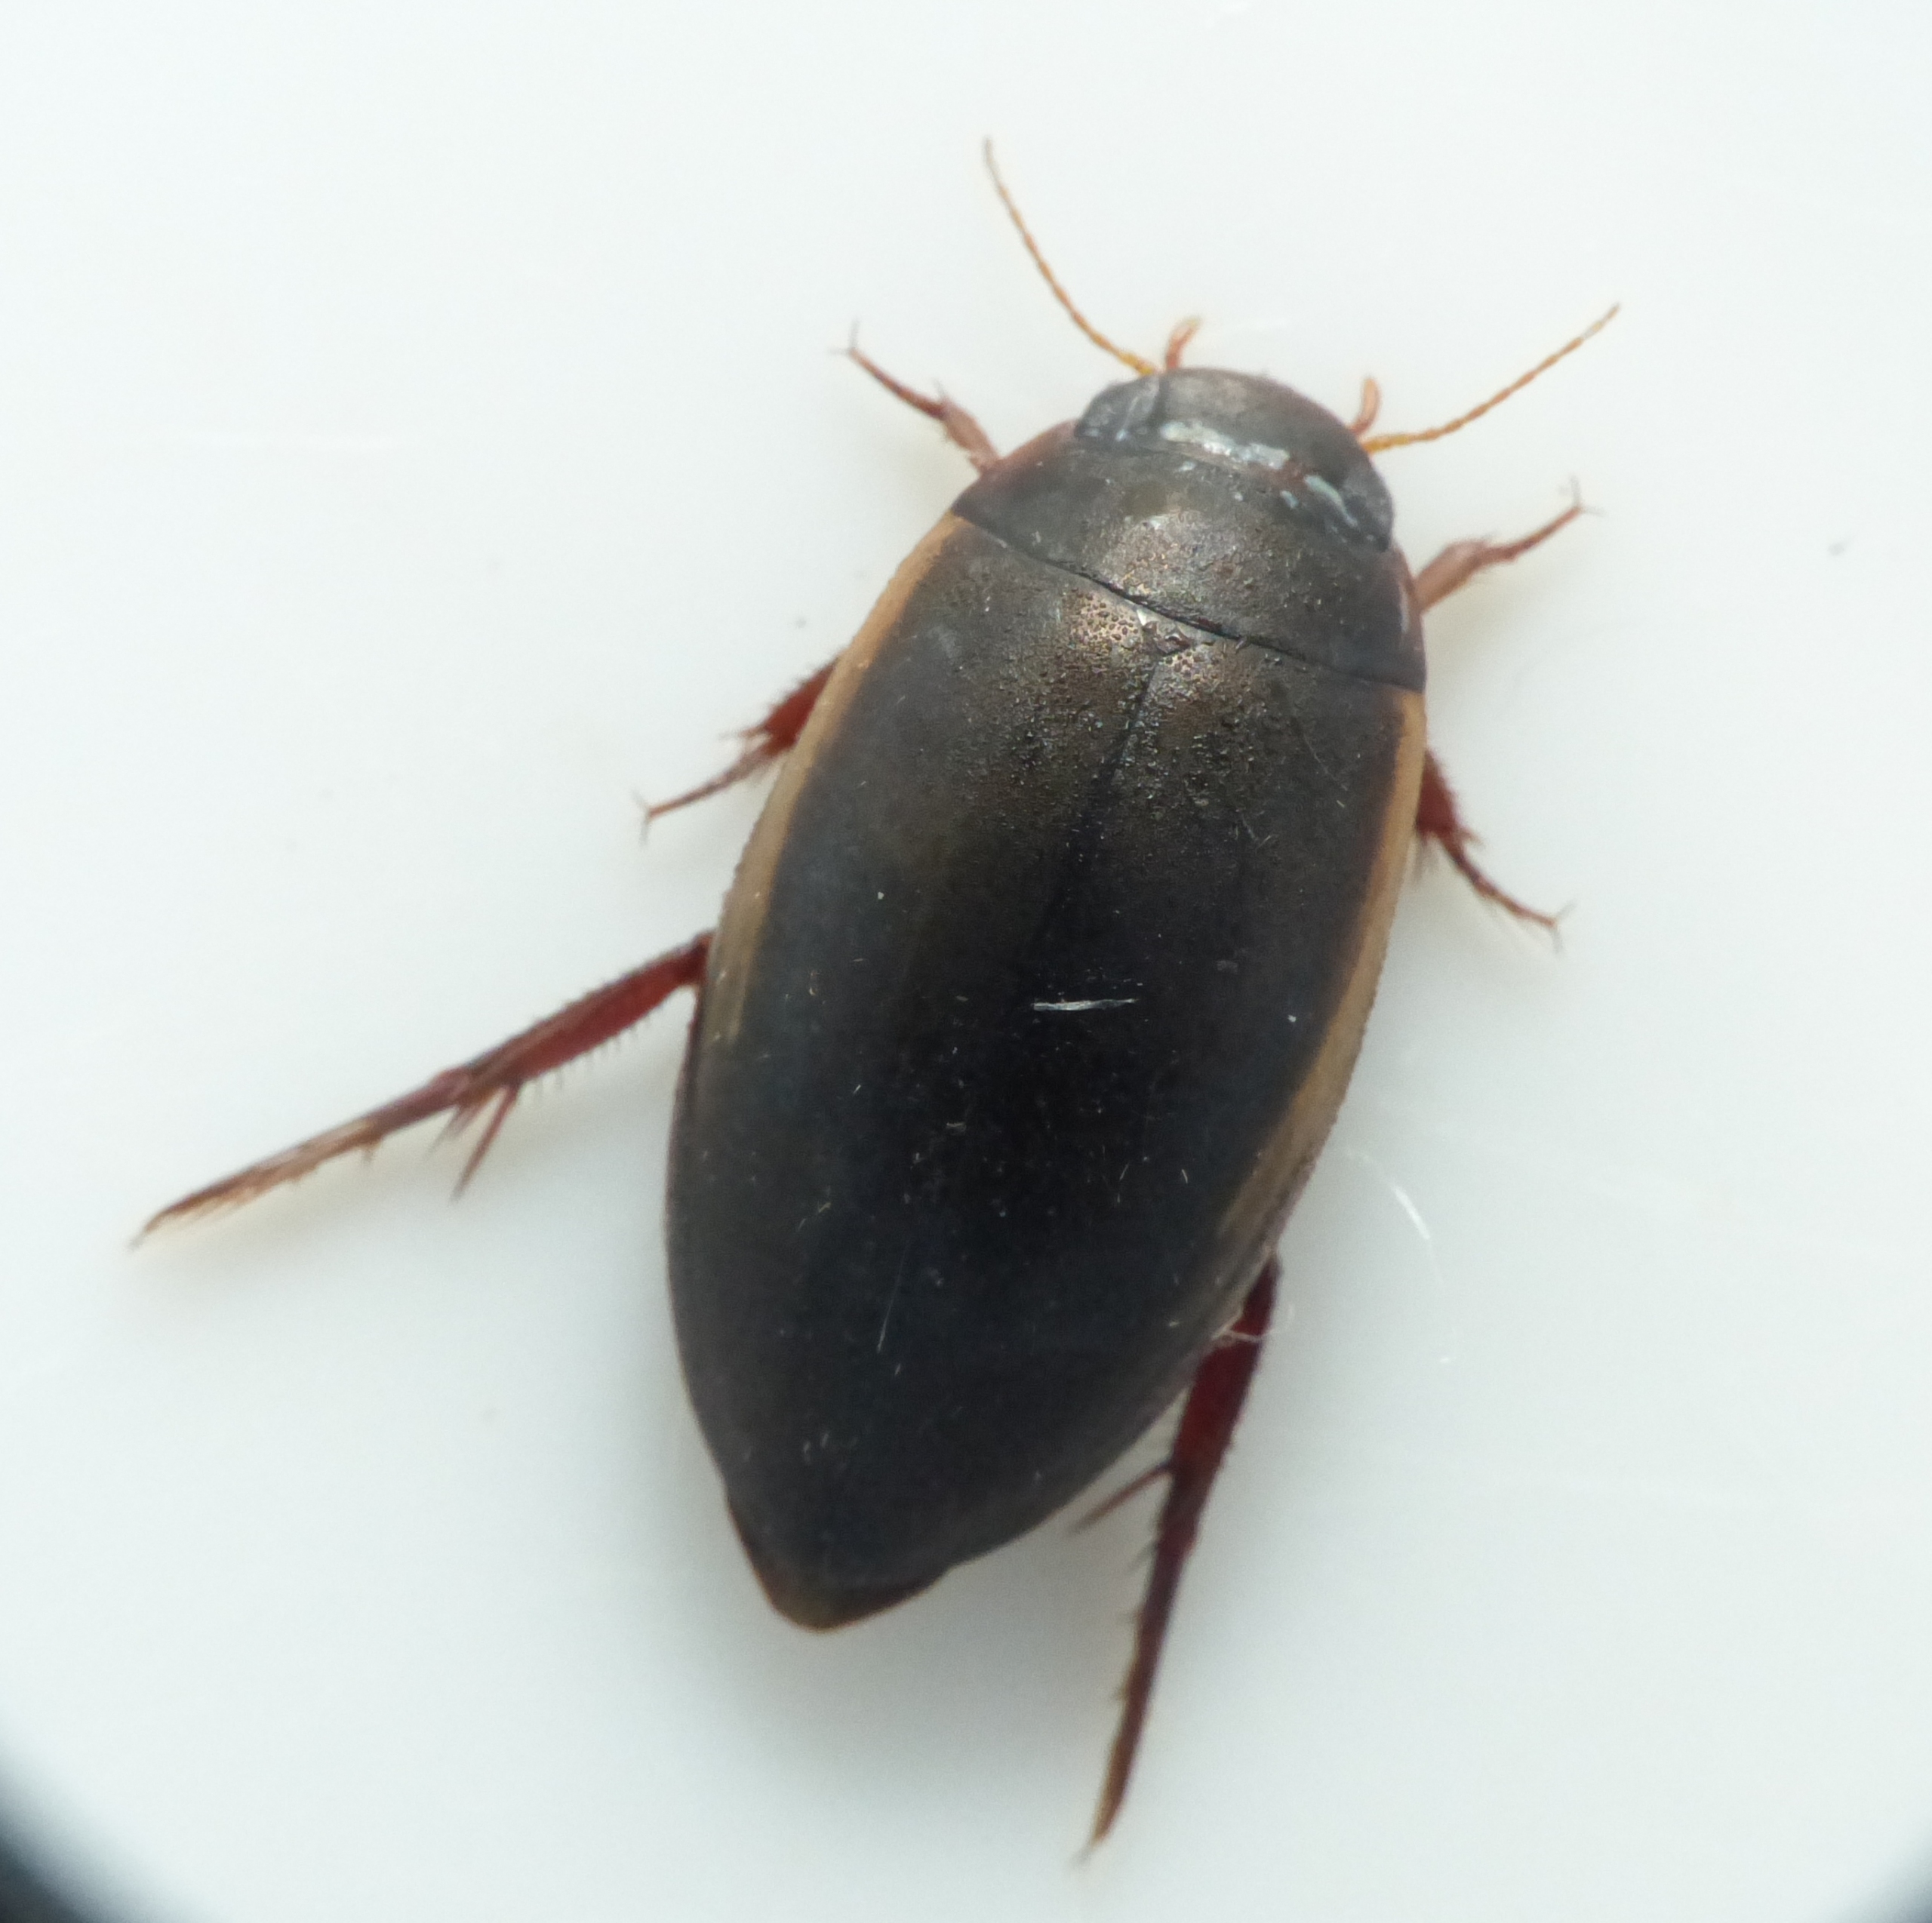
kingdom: Animalia
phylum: Arthropoda
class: Insecta
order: Coleoptera
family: Dytiscidae
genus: Ilybius
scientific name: Ilybius fuliginosus
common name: Gulrandet damvandkalv
